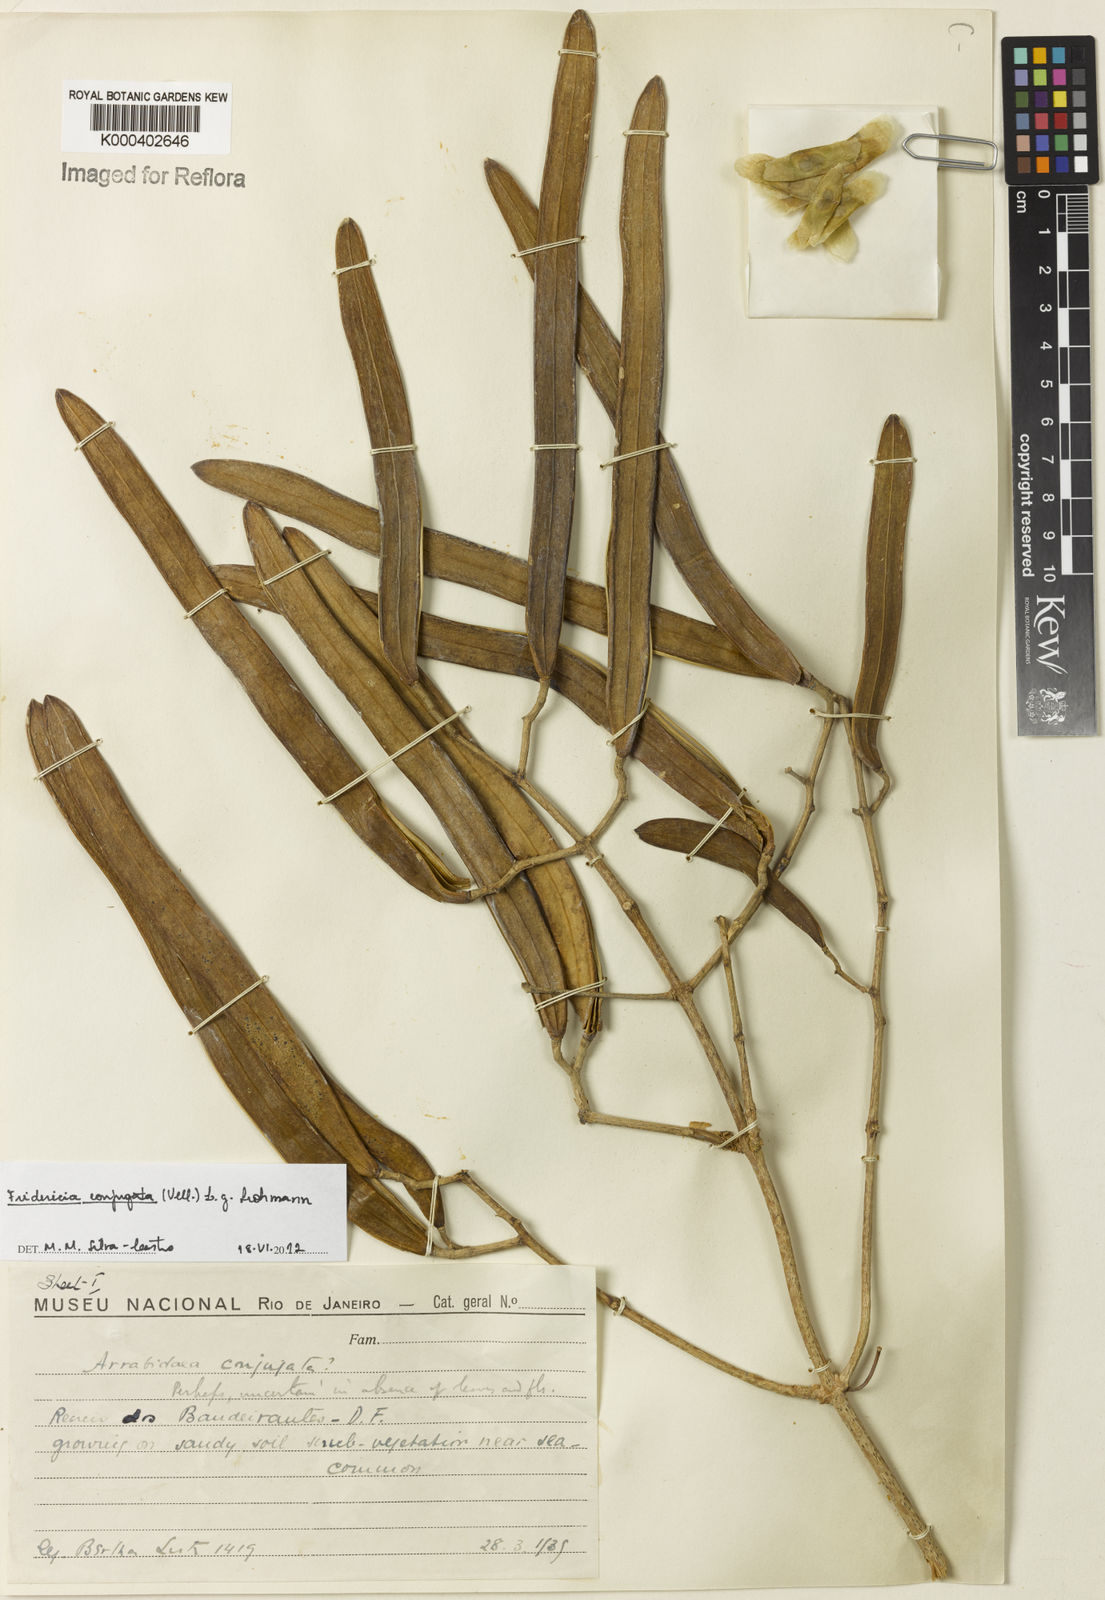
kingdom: Plantae
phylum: Tracheophyta
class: Magnoliopsida
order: Lamiales
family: Bignoniaceae
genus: Fridericia
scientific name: Fridericia conjugata
